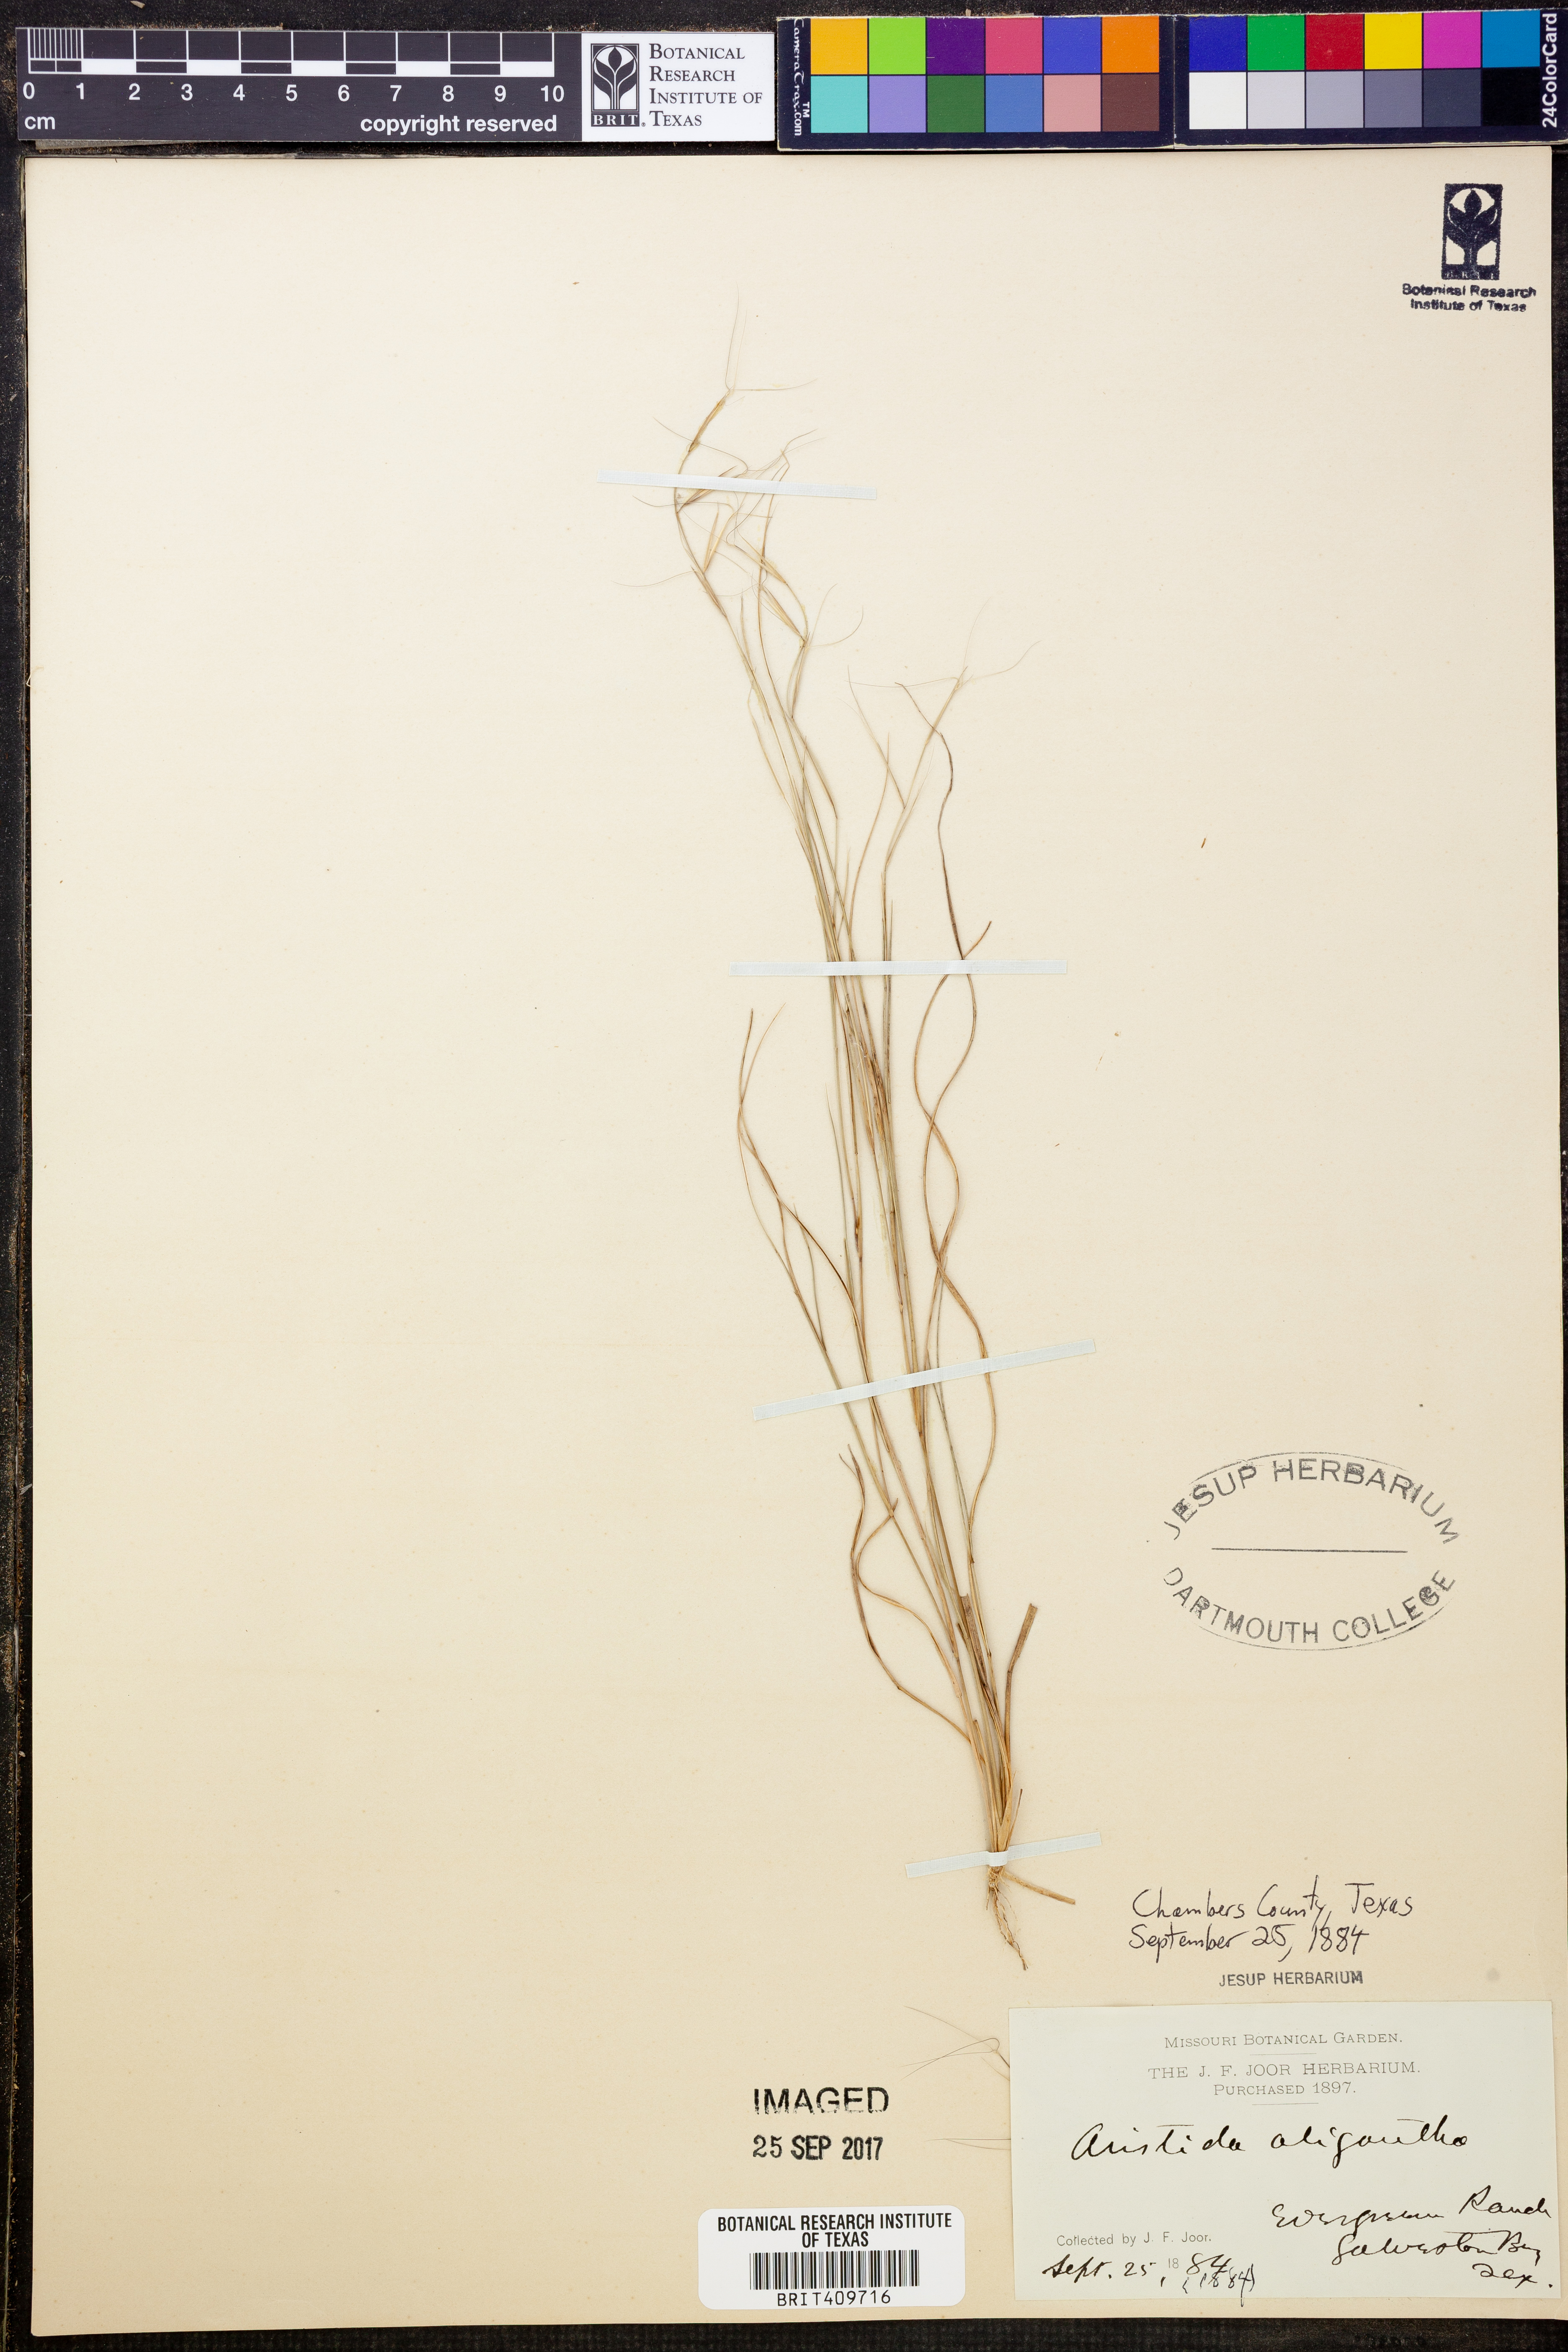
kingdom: Plantae
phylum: Tracheophyta
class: Liliopsida
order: Poales
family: Poaceae
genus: Aristida
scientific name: Aristida oligantha
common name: Few-flowered aristida
